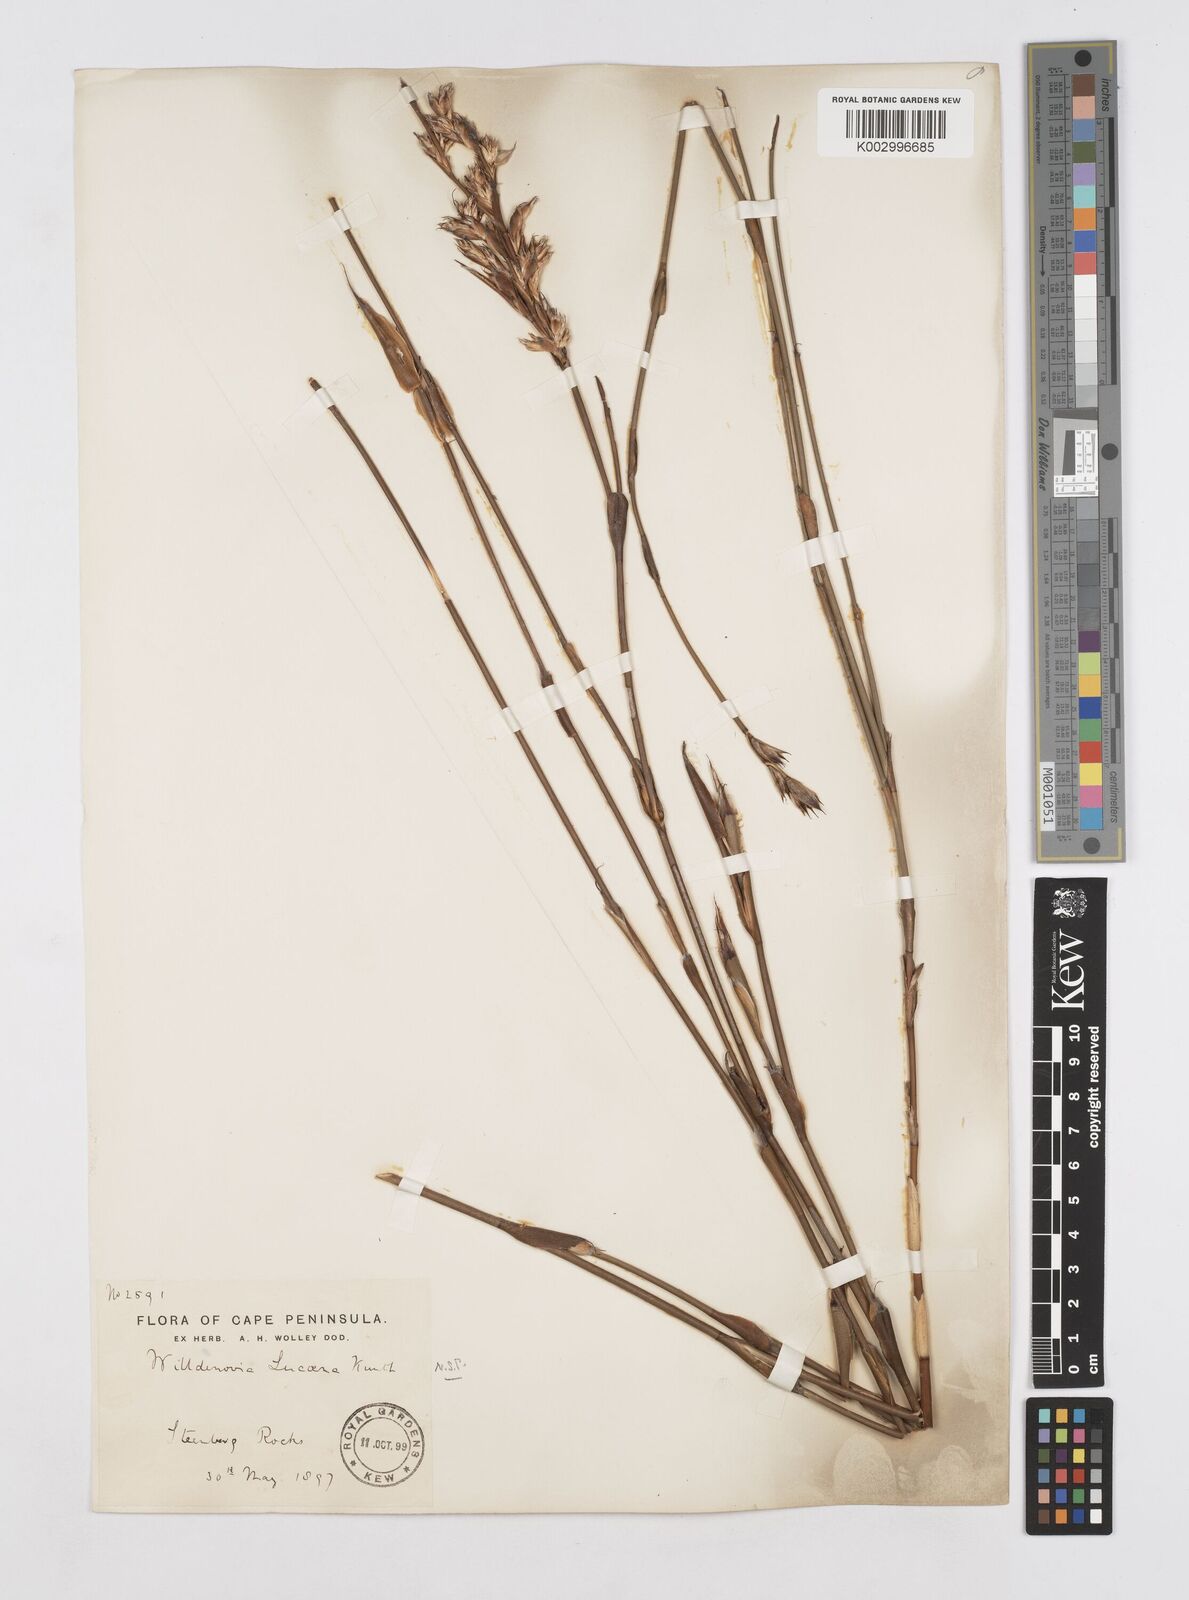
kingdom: Plantae
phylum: Tracheophyta
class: Liliopsida
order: Poales
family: Restionaceae
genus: Willdenowia
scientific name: Willdenowia glomerata
